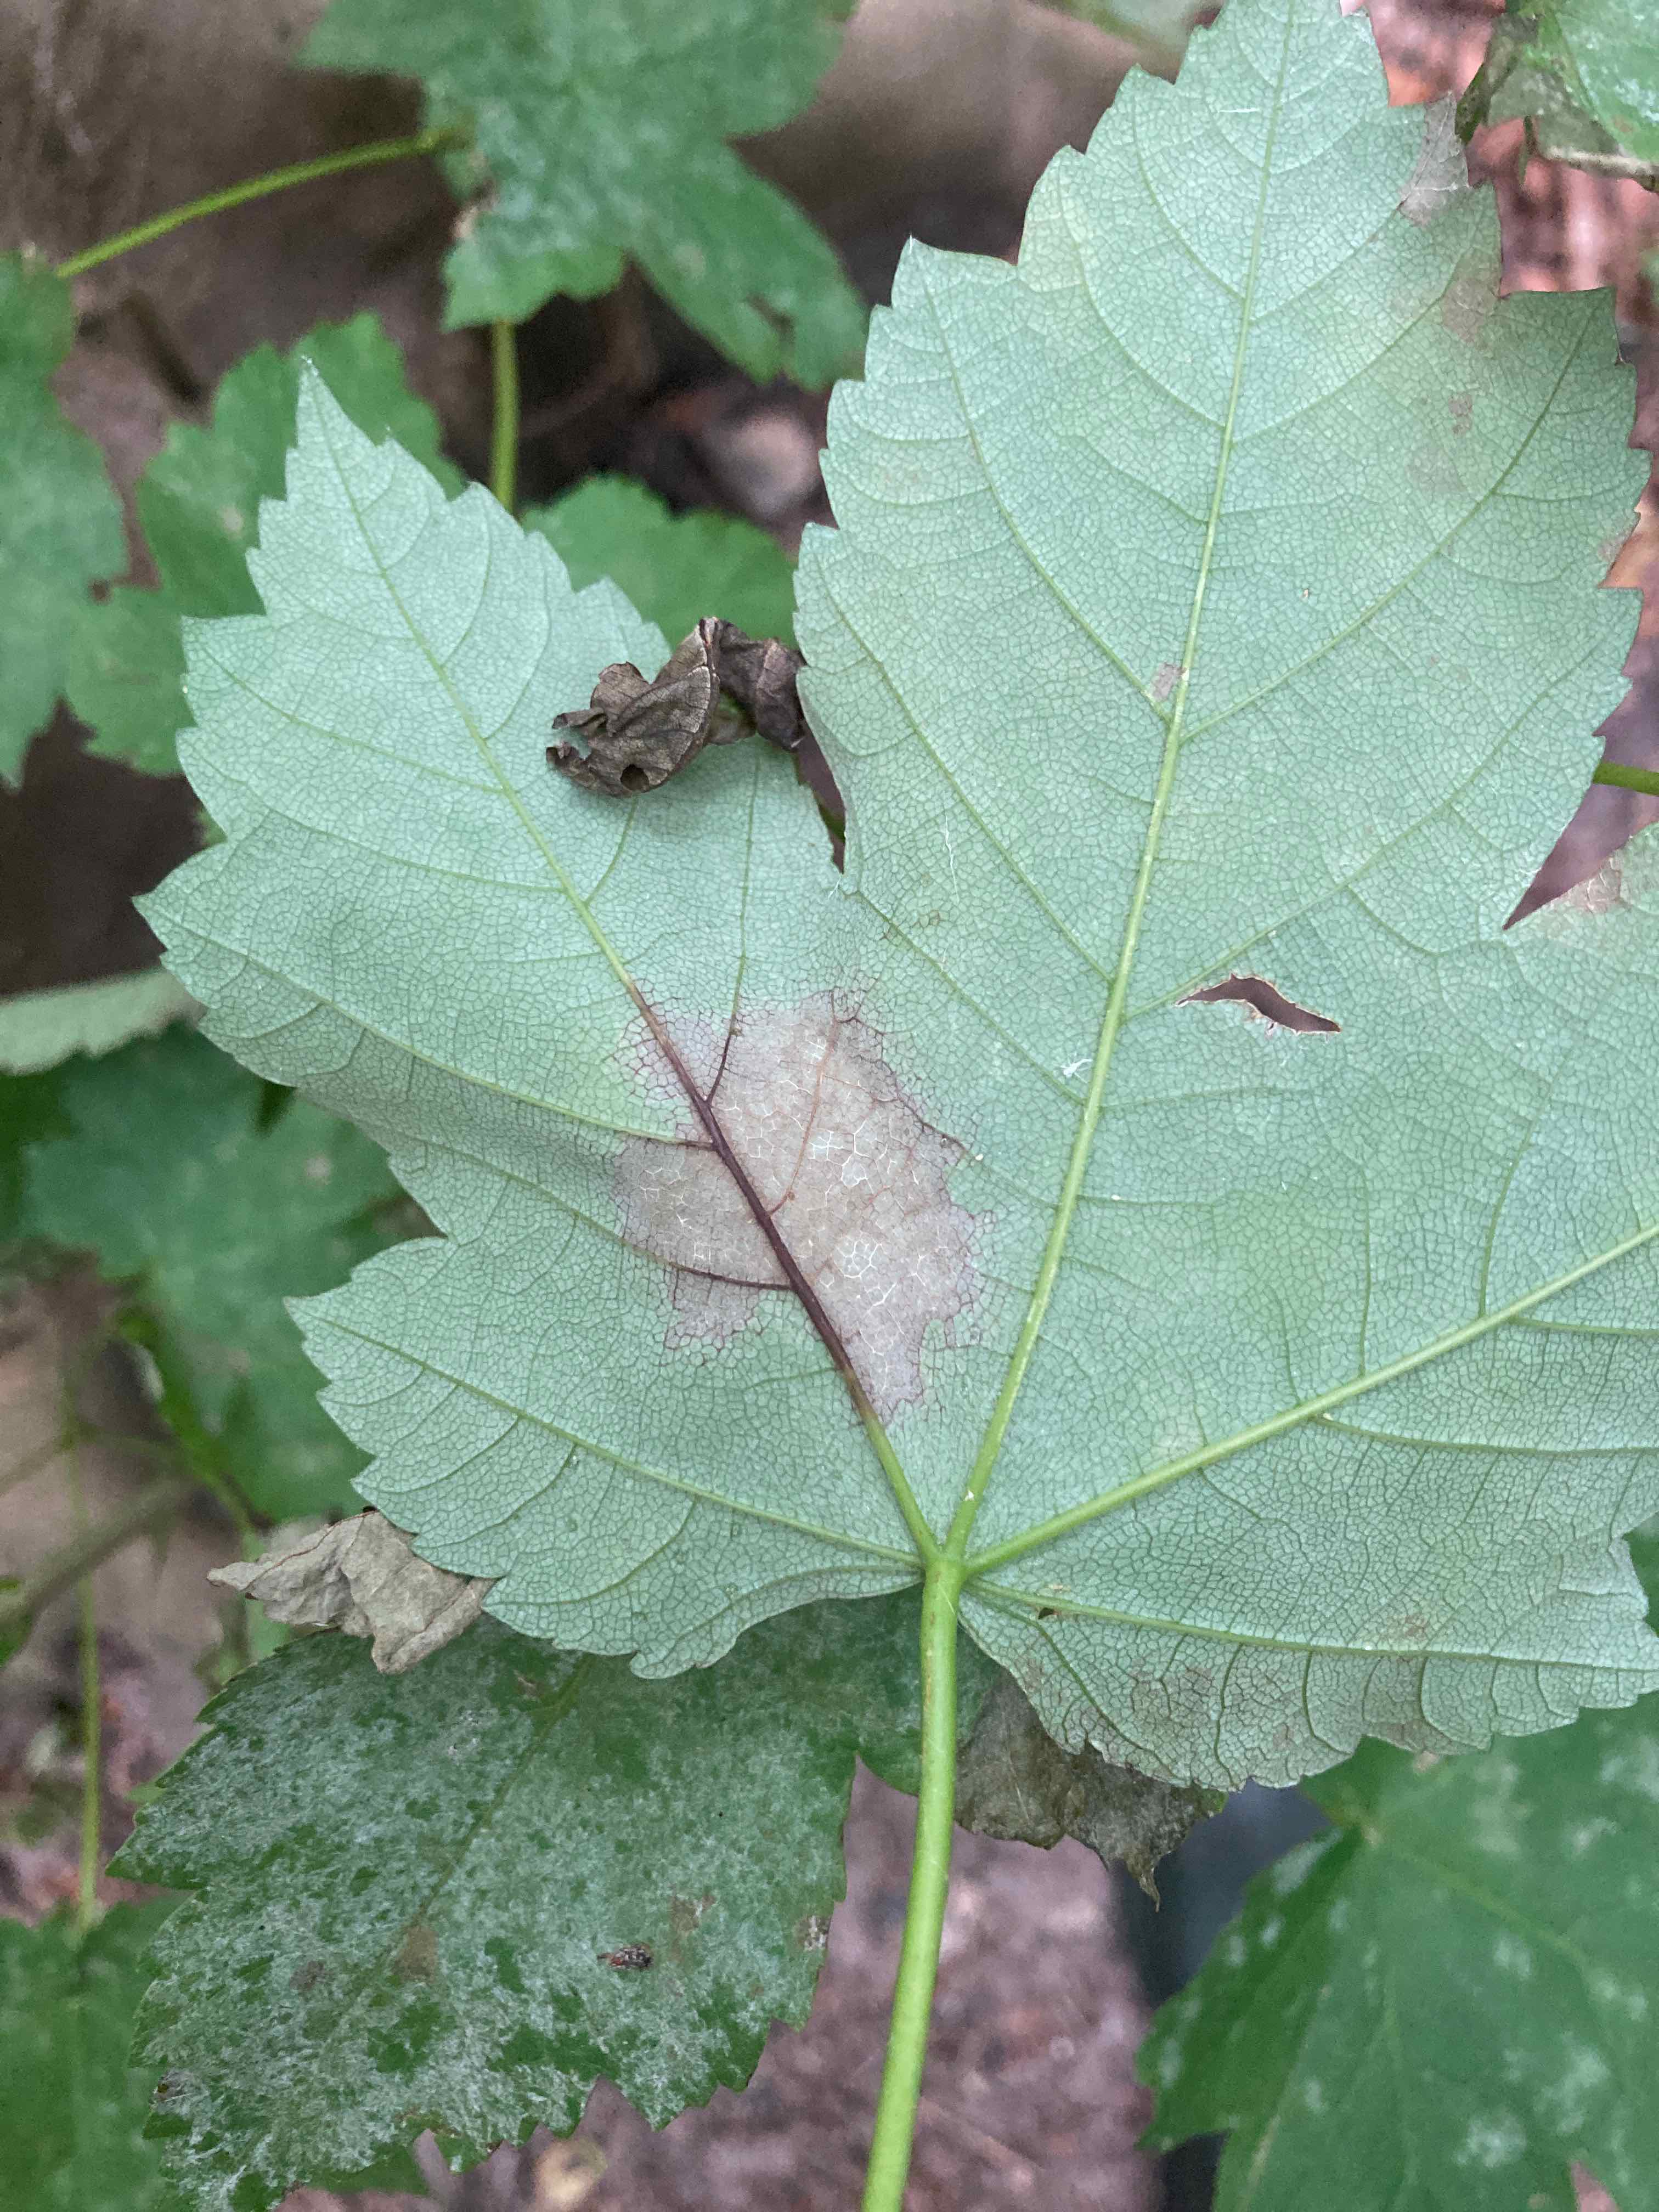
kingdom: Fungi
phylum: Ascomycota
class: Sordariomycetes
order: Diaporthales
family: Gnomoniaceae
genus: Pleuroceras
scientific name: Pleuroceras pseudoplatani
